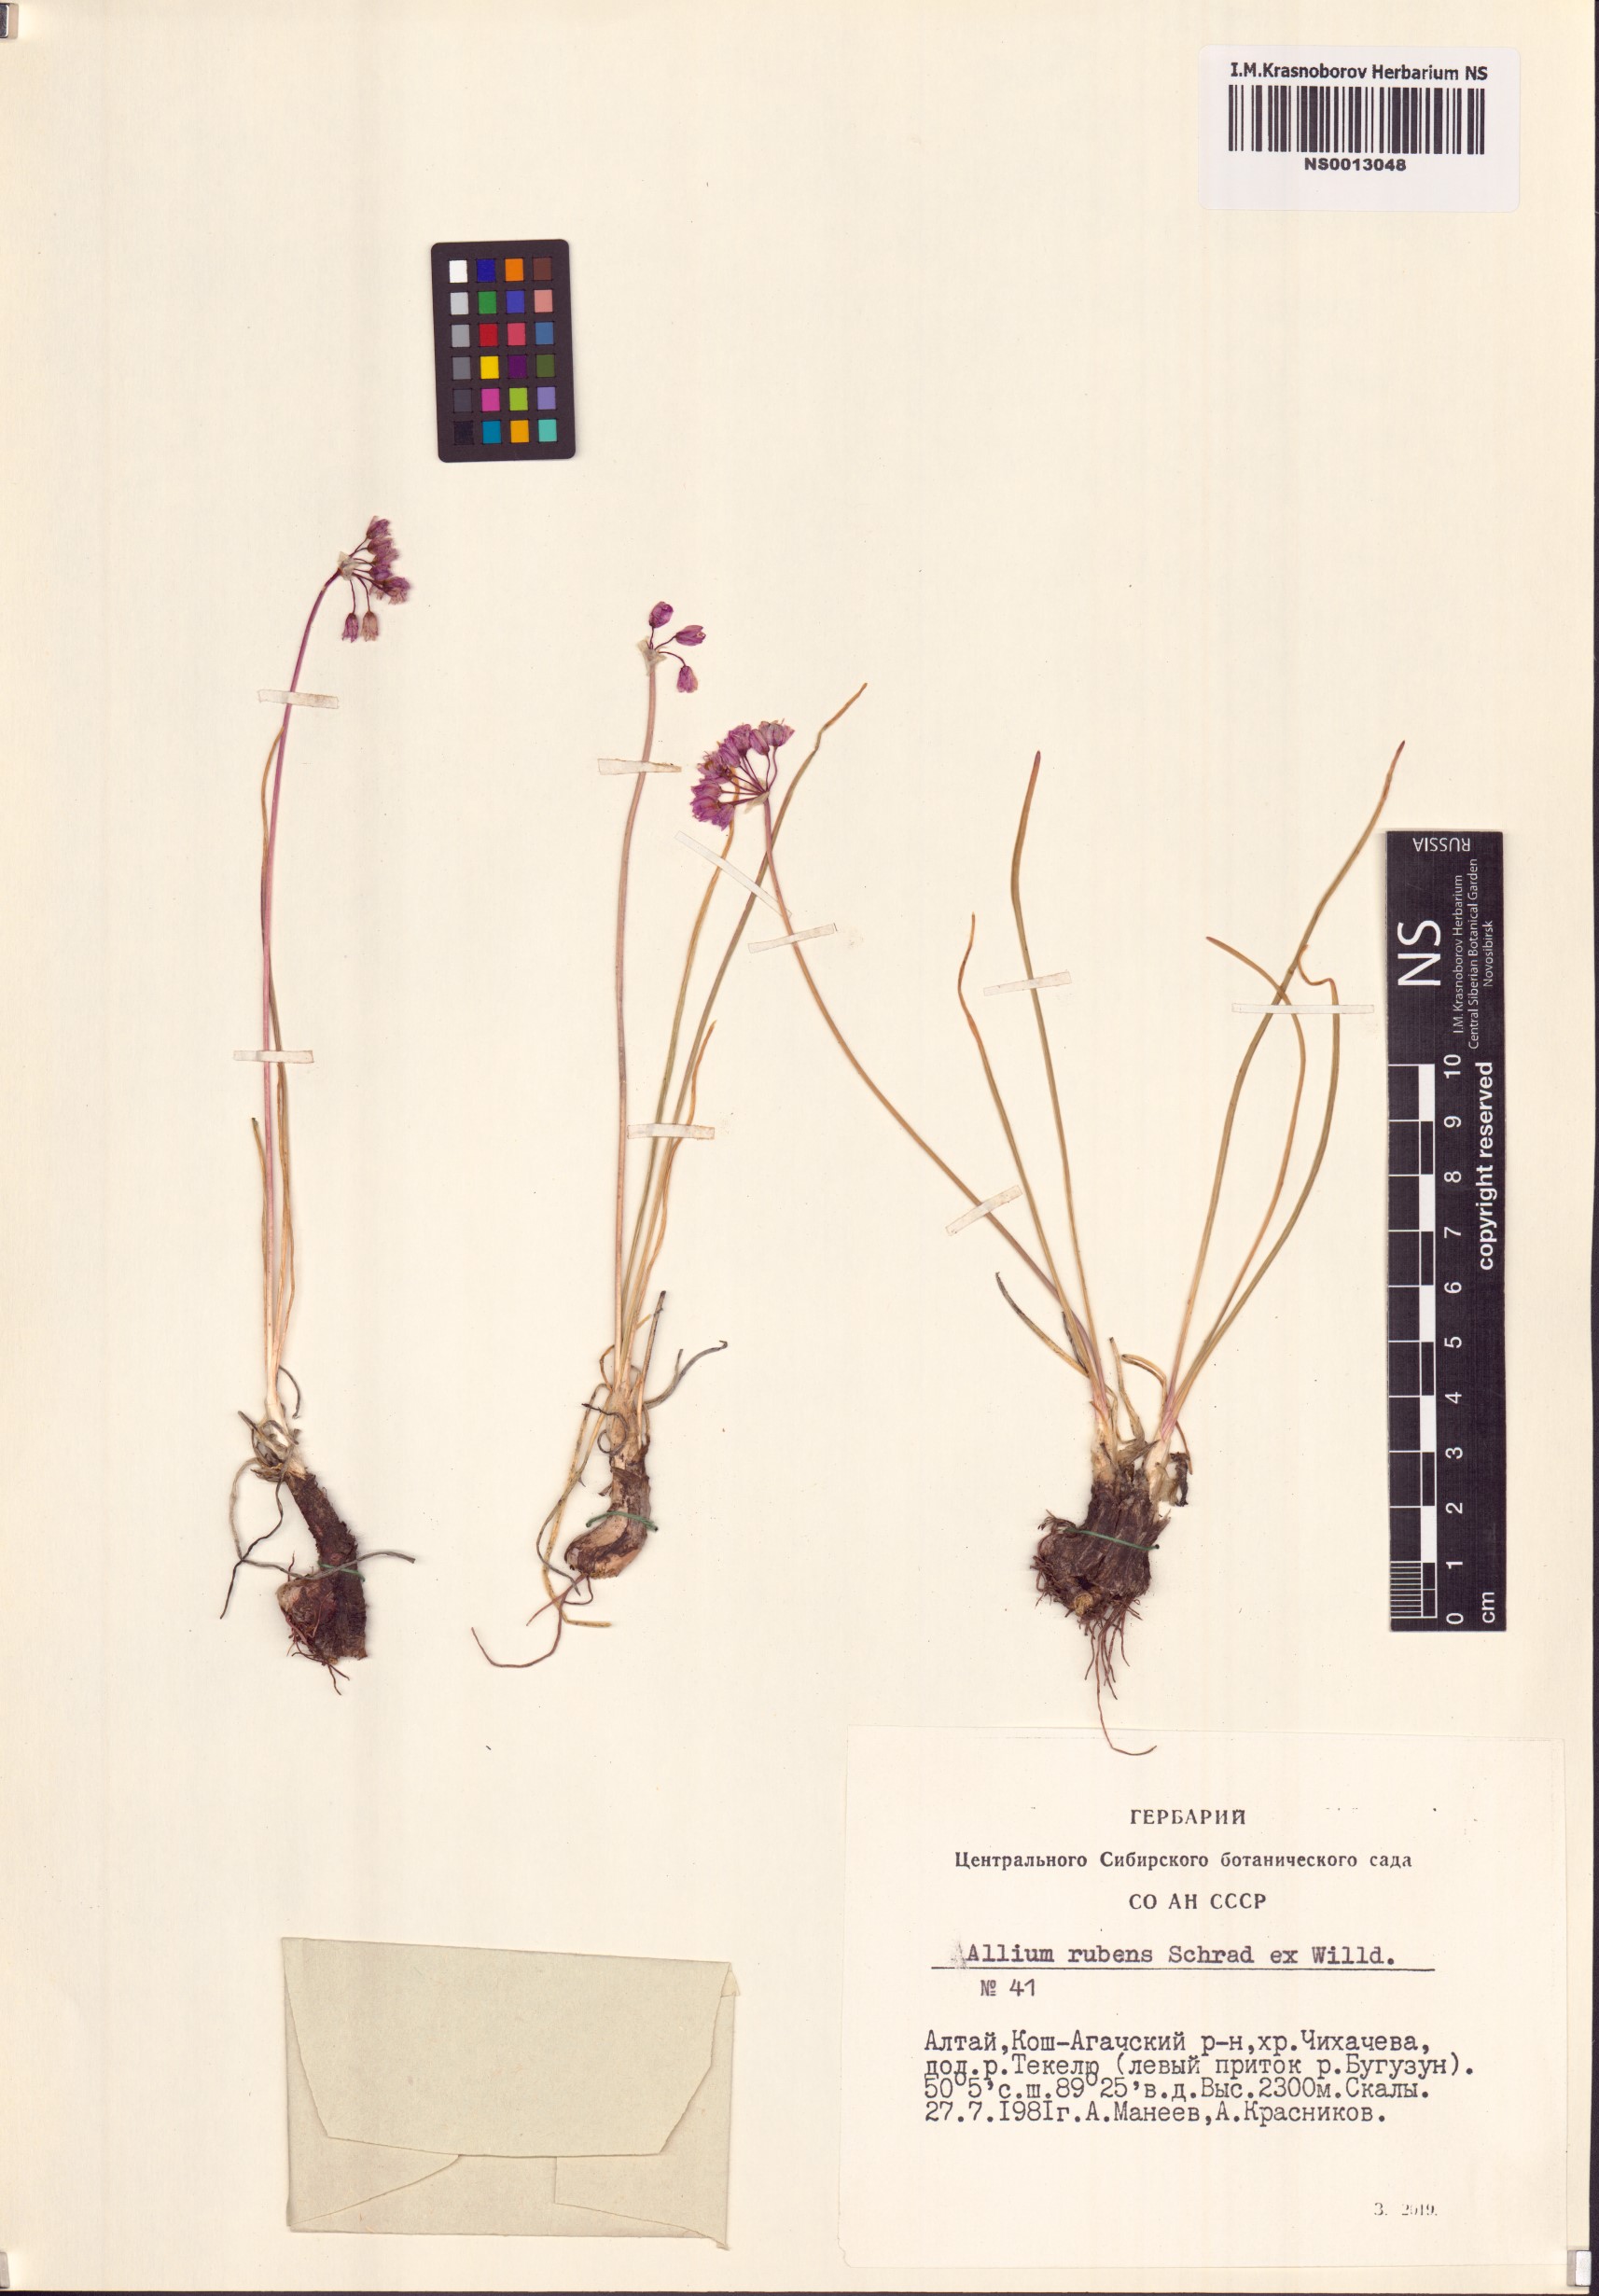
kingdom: Plantae
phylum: Tracheophyta
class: Liliopsida
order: Asparagales
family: Amaryllidaceae
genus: Allium
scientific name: Allium rubens
